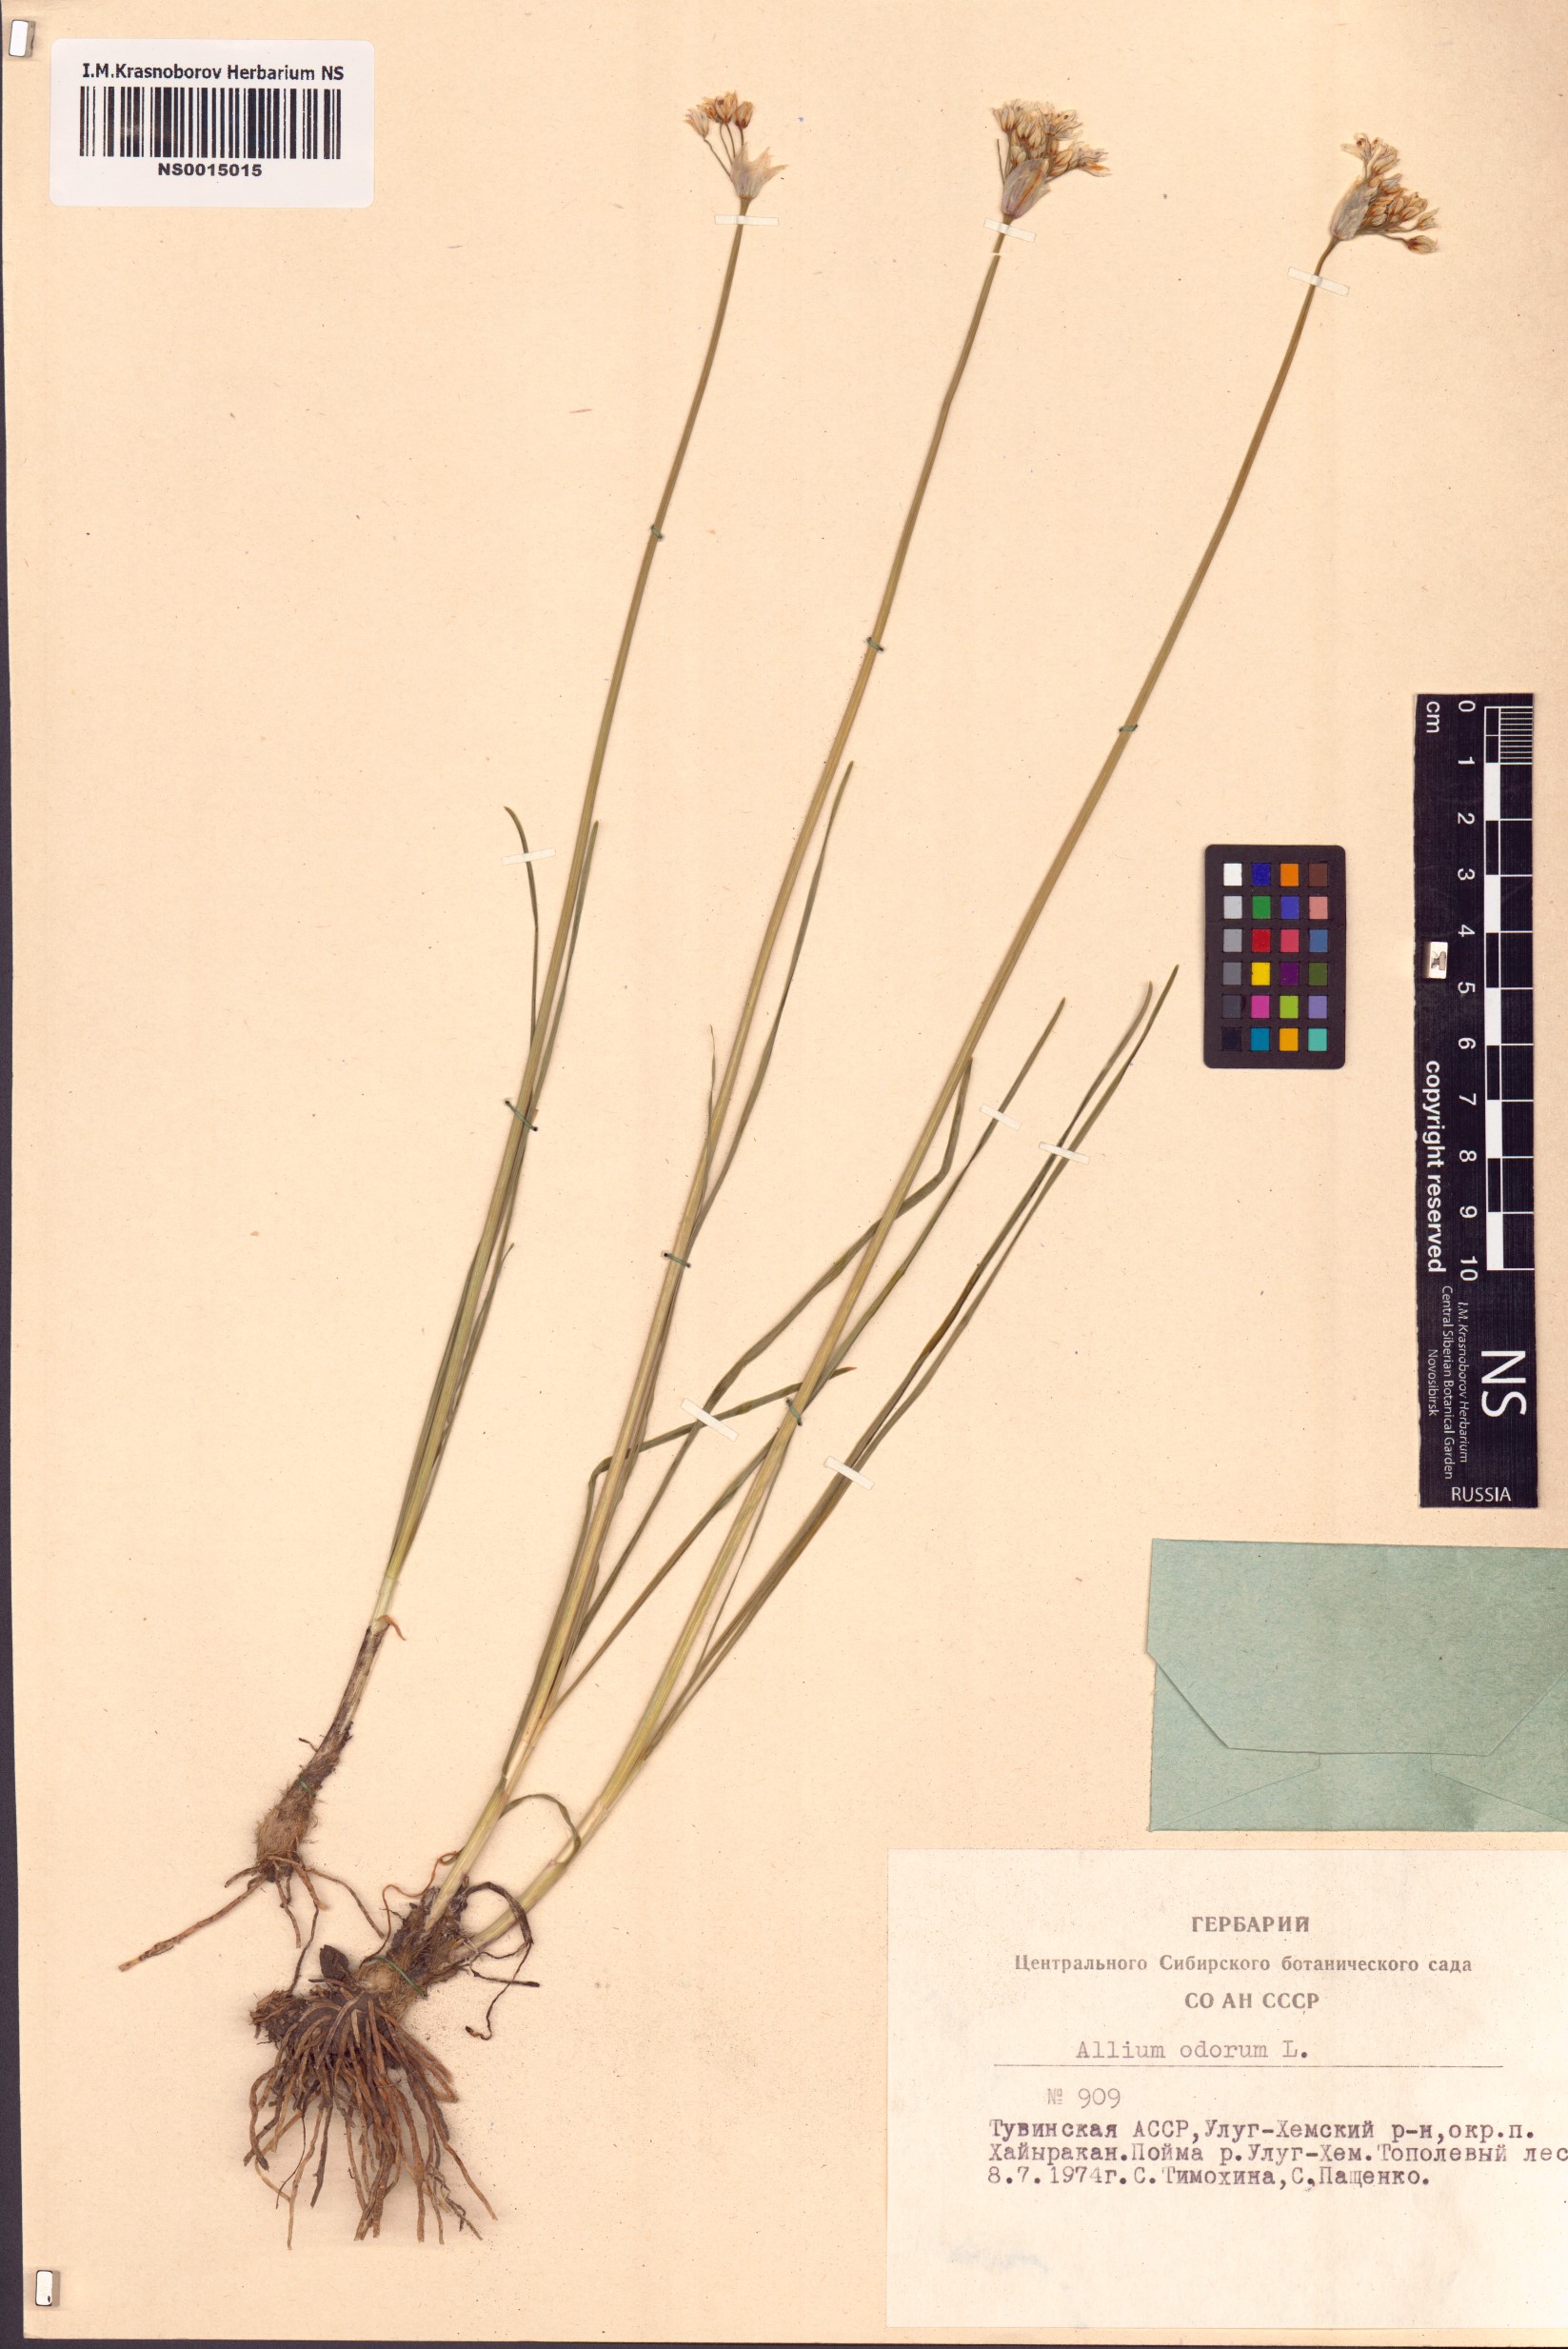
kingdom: Plantae
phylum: Tracheophyta
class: Liliopsida
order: Asparagales
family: Amaryllidaceae
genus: Allium
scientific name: Allium ramosum
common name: Fragrant garlic
